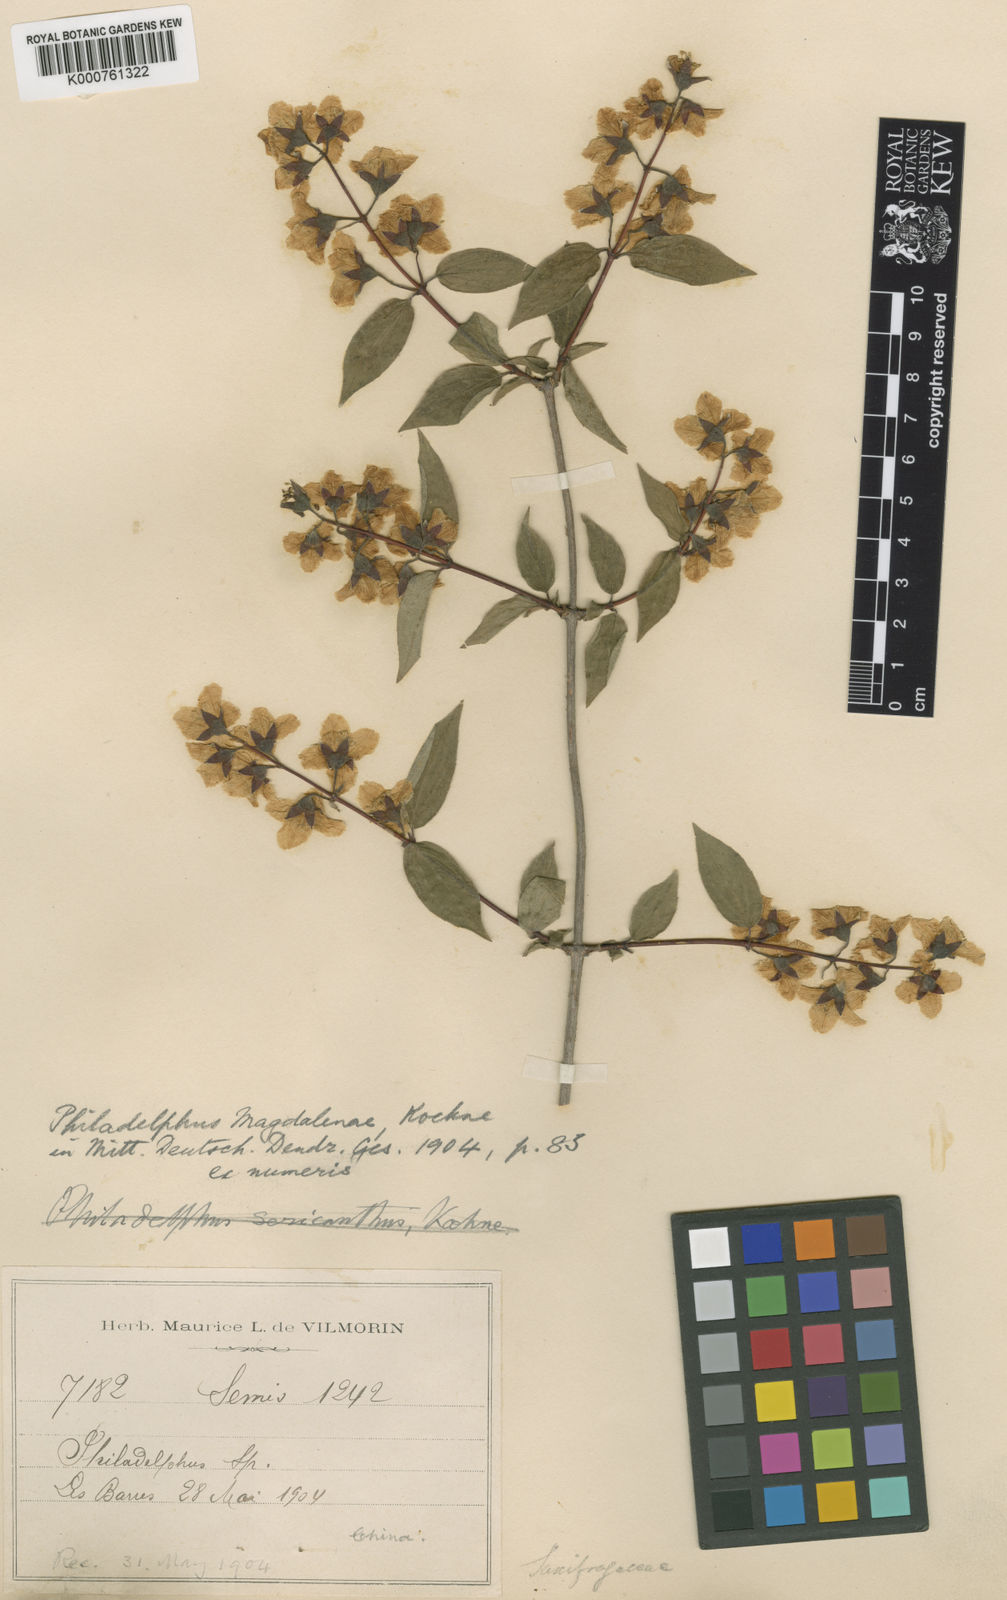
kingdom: Plantae
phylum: Tracheophyta
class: Magnoliopsida
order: Cornales
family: Hydrangeaceae
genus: Philadelphus
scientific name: Philadelphus subcanus
